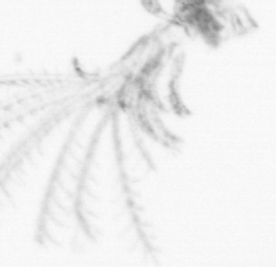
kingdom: Animalia
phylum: Arthropoda
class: Maxillopoda
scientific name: Maxillopoda
